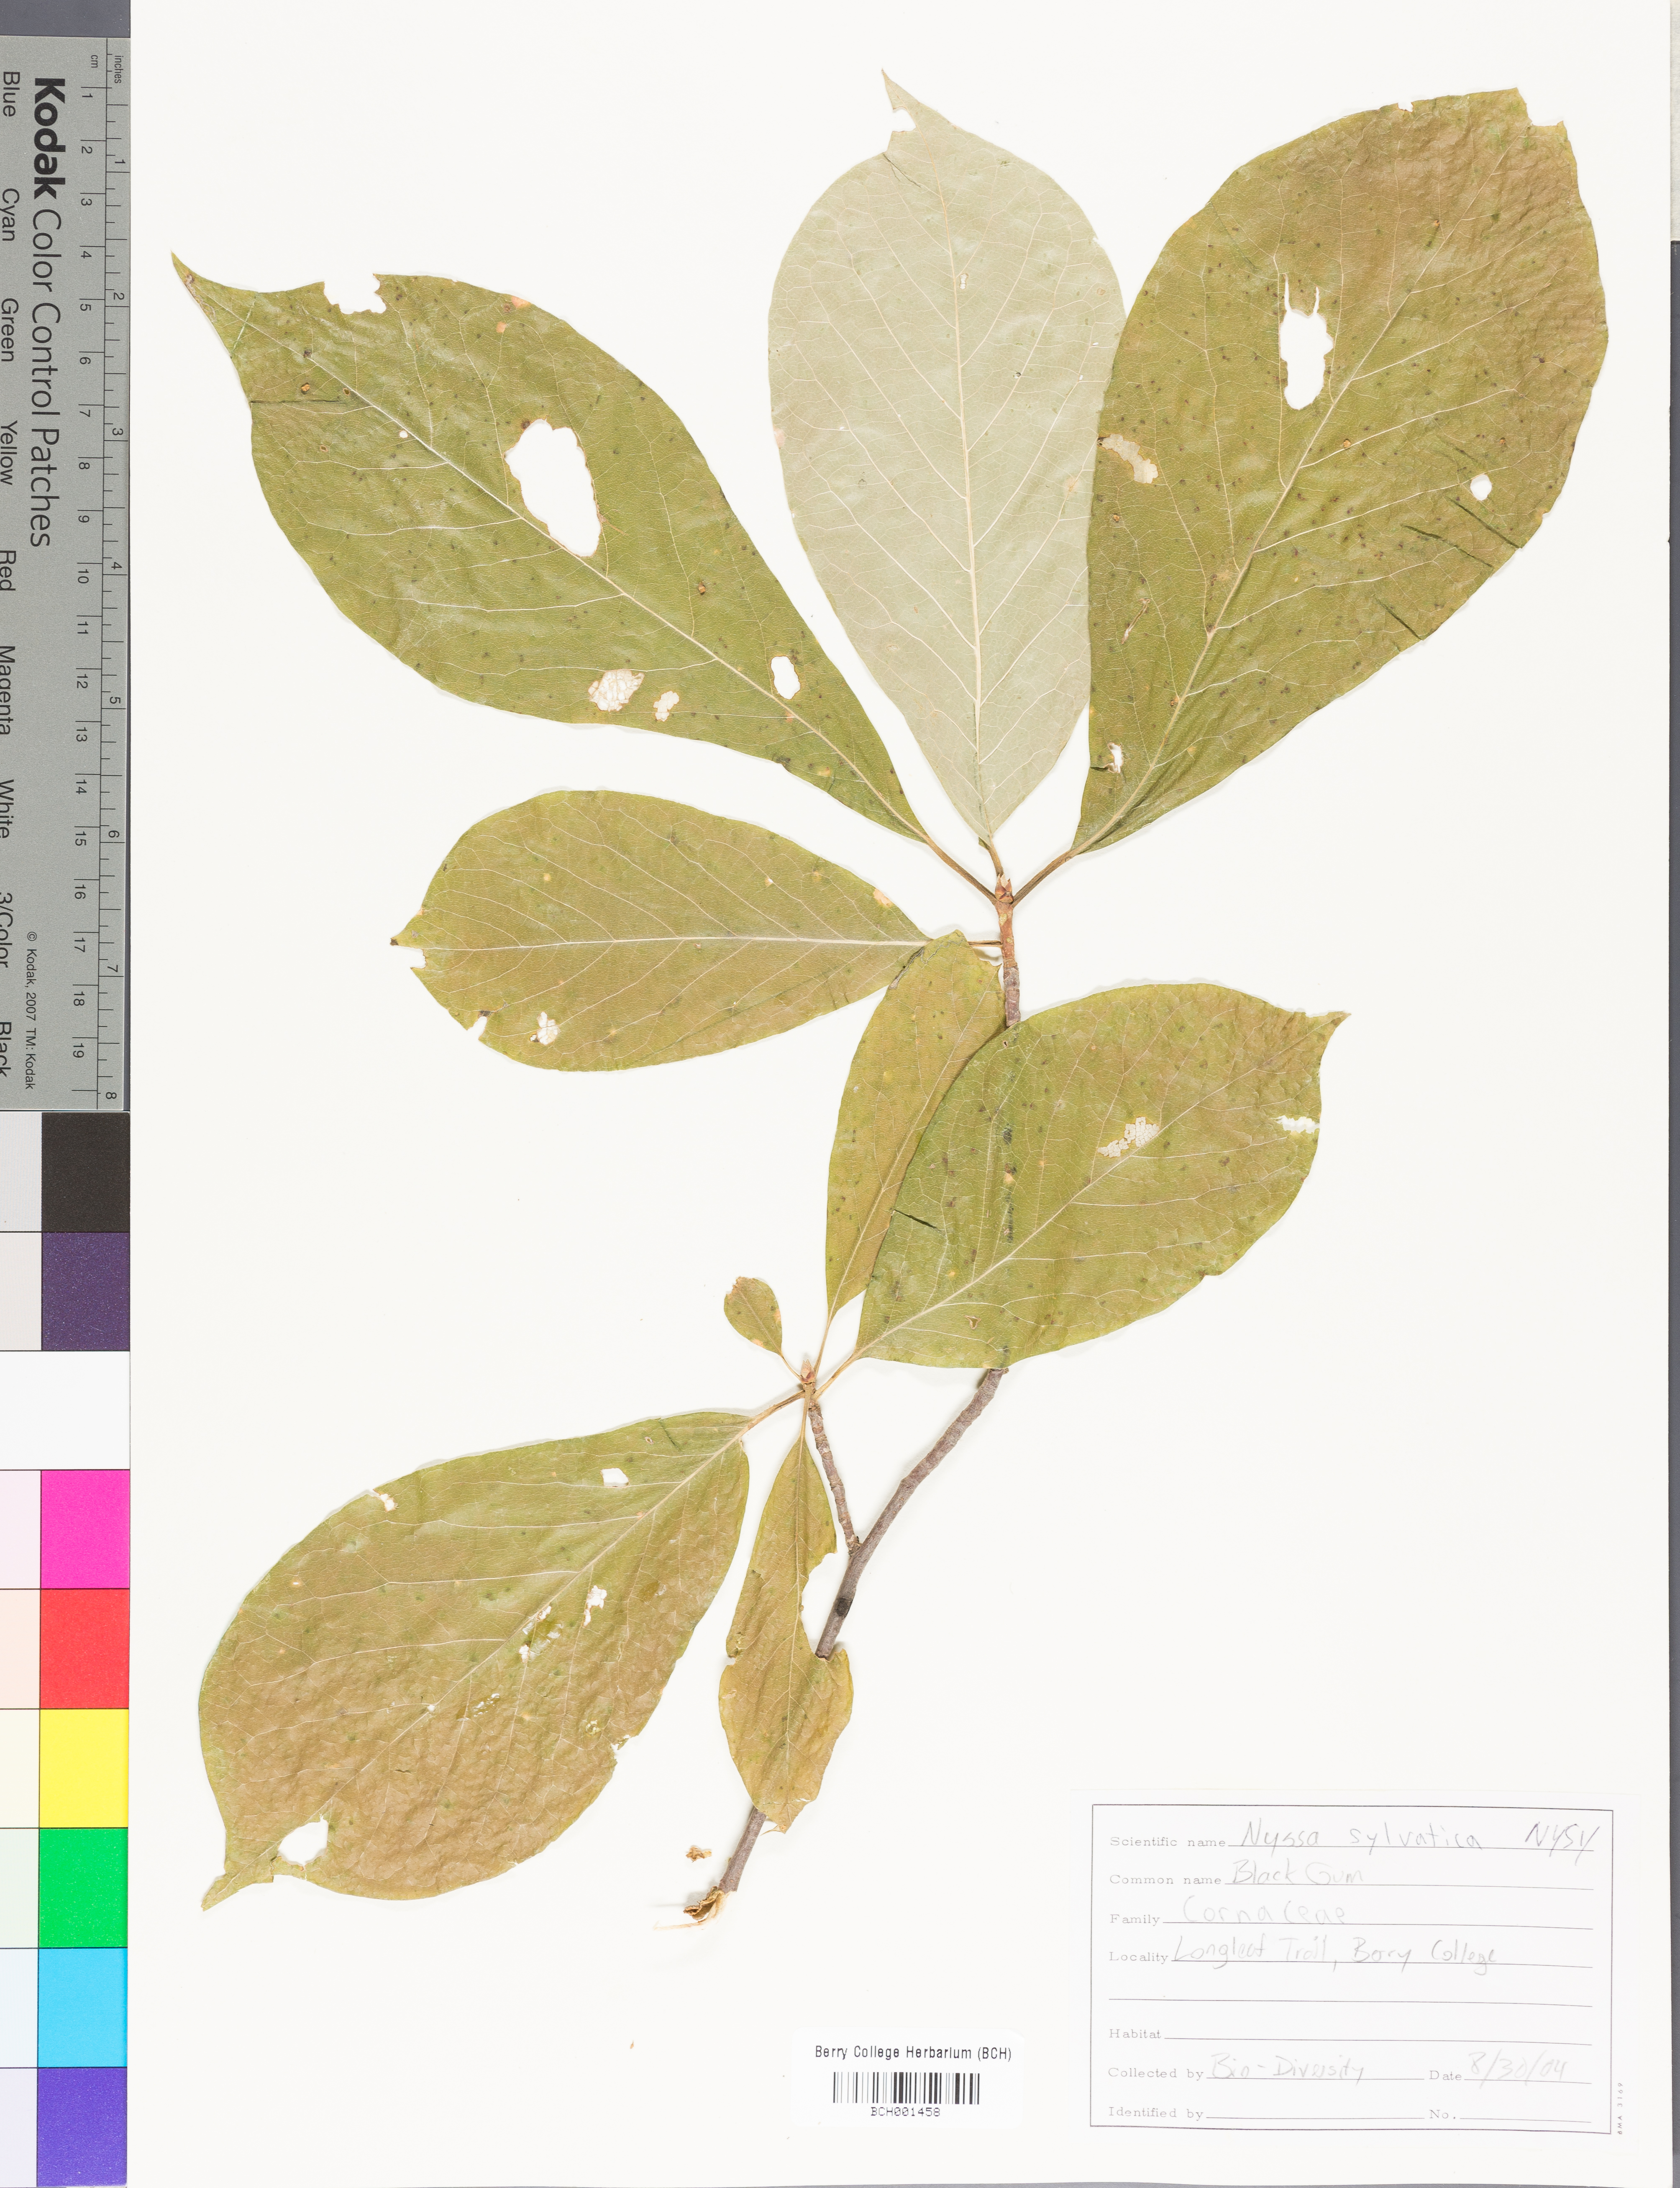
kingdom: Plantae
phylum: Tracheophyta
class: Magnoliopsida
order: Cornales
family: Nyssaceae
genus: Nyssa
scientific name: Nyssa sylvatica
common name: Black tupelo
